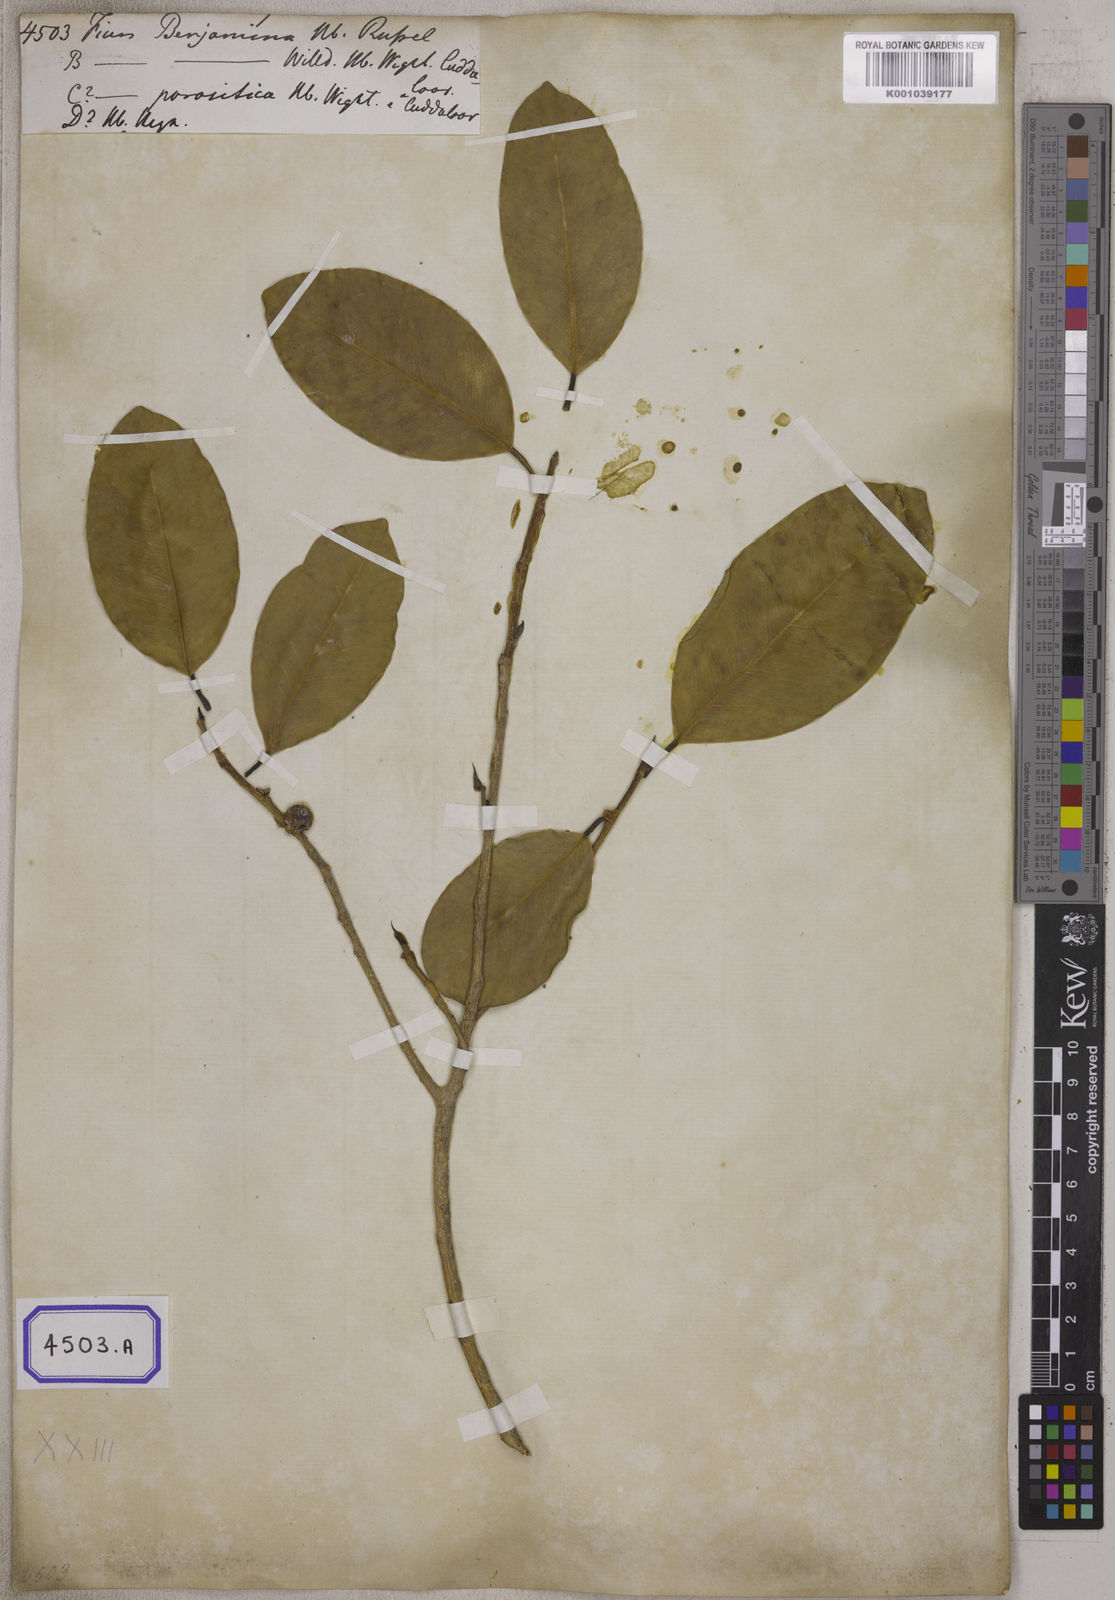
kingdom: Plantae
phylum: Tracheophyta
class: Magnoliopsida
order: Rosales
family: Moraceae
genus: Ficus
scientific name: Ficus
